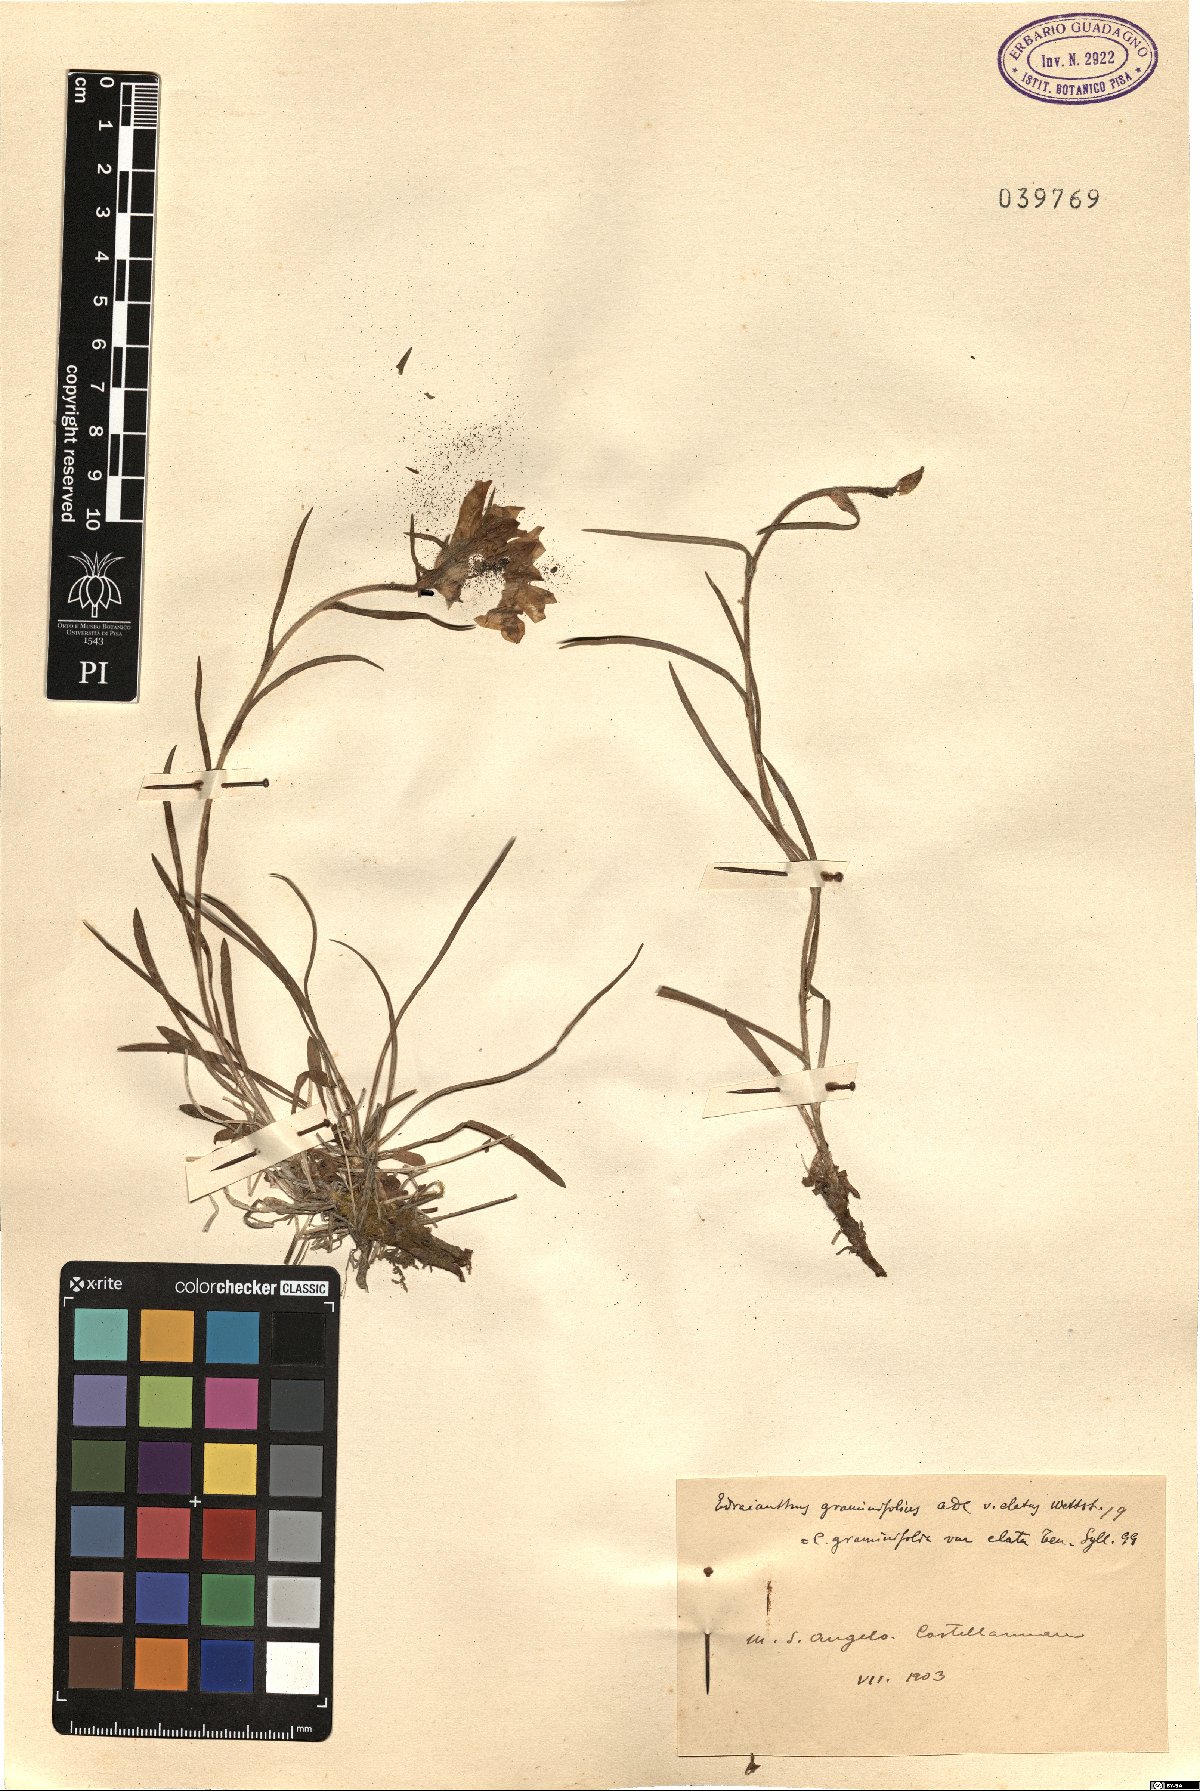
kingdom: Plantae
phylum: Tracheophyta
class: Magnoliopsida
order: Asterales
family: Campanulaceae
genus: Edraianthus
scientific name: Edraianthus graminifolius
